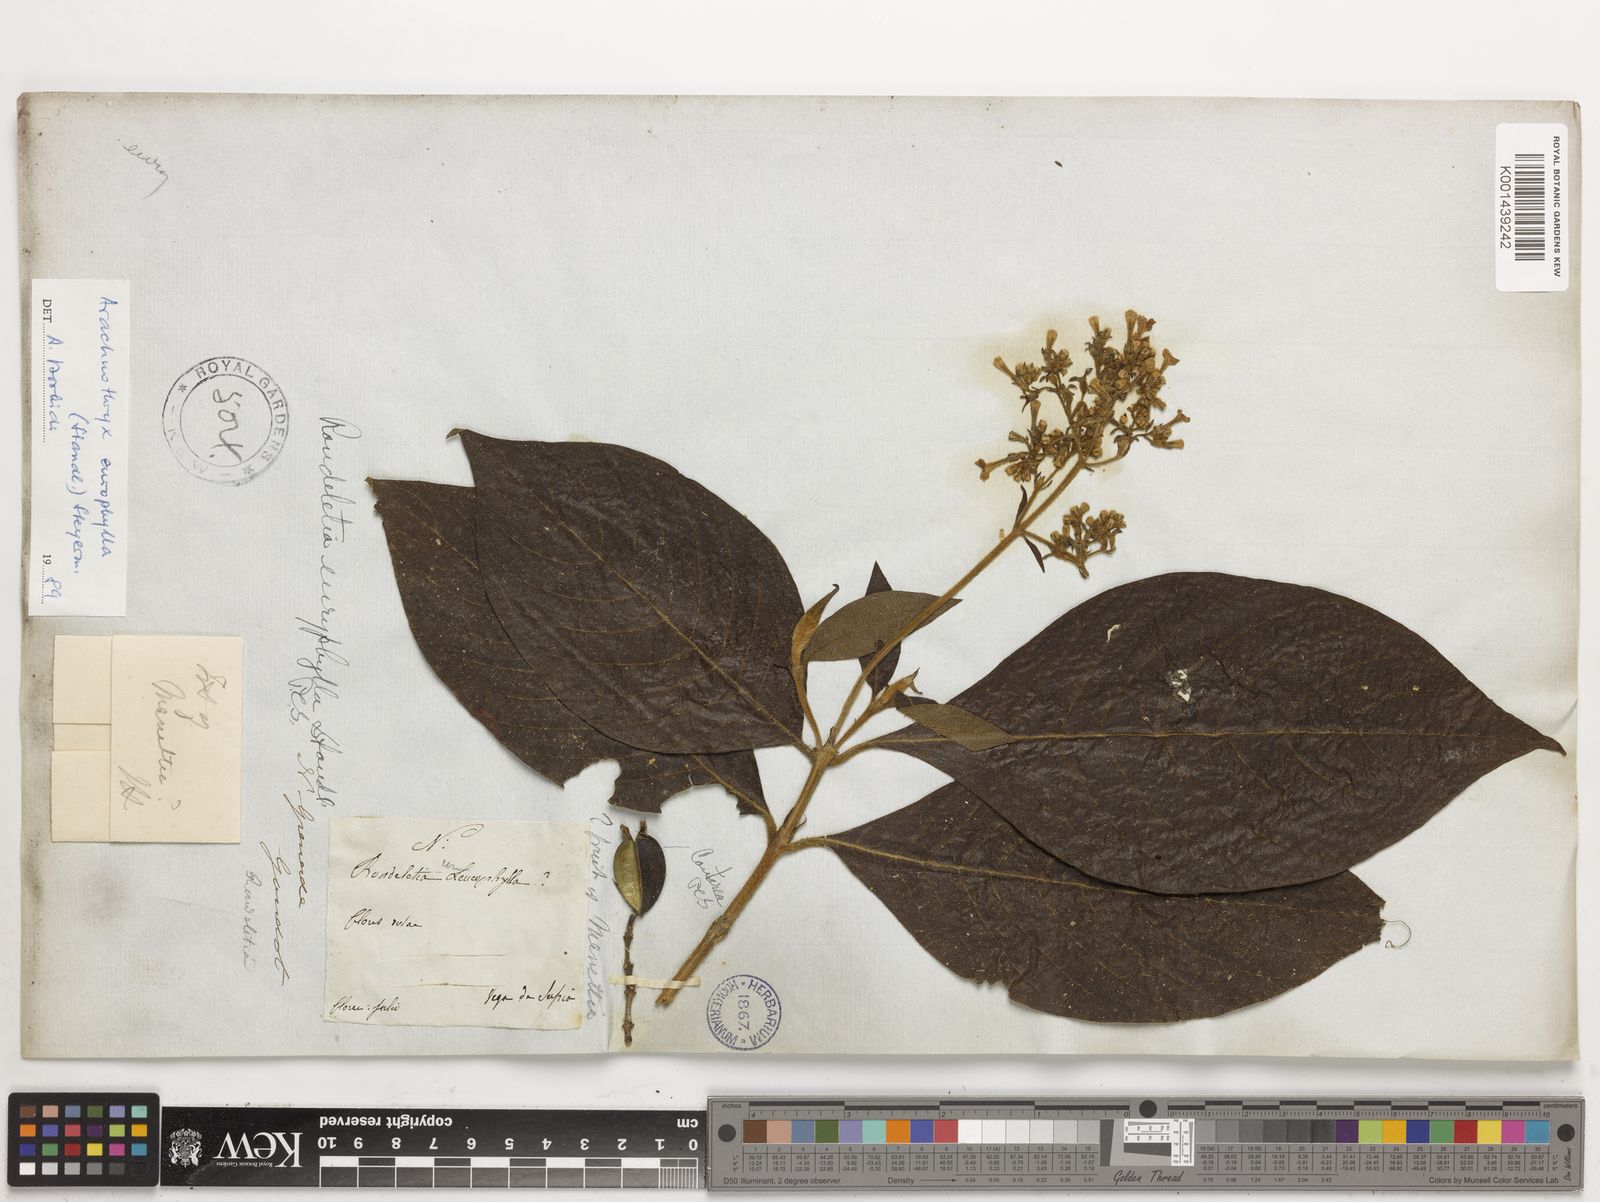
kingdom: Plantae
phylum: Tracheophyta
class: Magnoliopsida
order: Gentianales
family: Rubiaceae
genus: Arachnothryx
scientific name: Arachnothryx euryphylla
